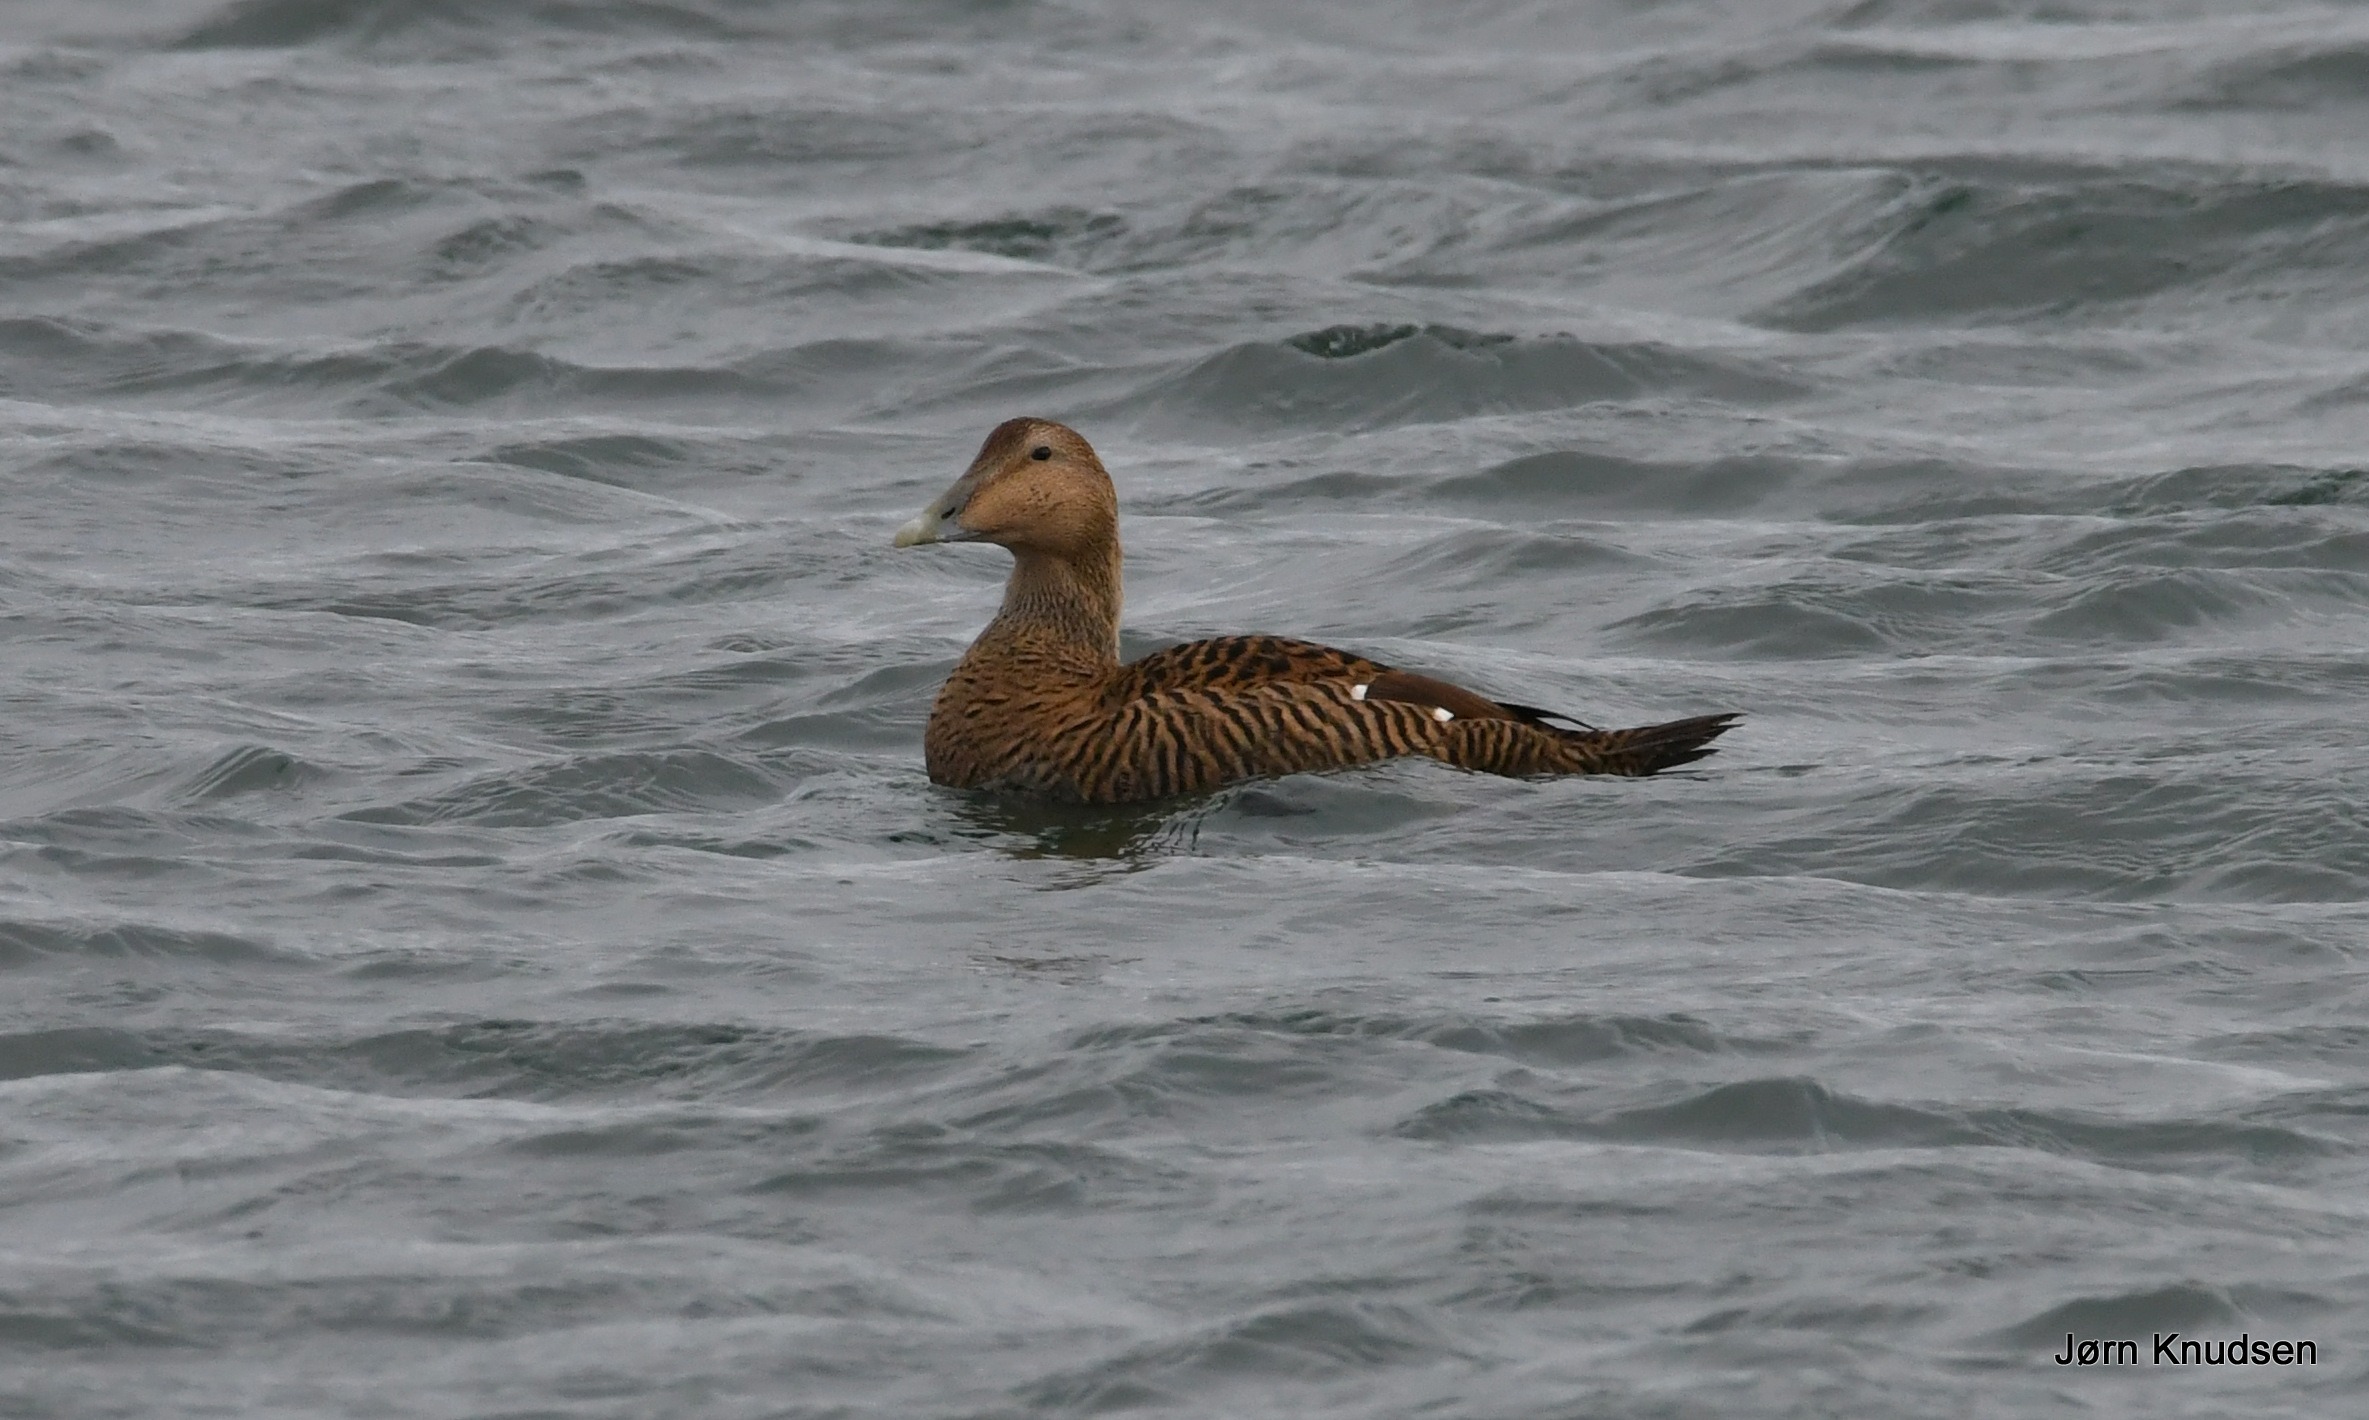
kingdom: Animalia
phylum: Chordata
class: Aves
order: Anseriformes
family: Anatidae
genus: Somateria
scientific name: Somateria mollissima
